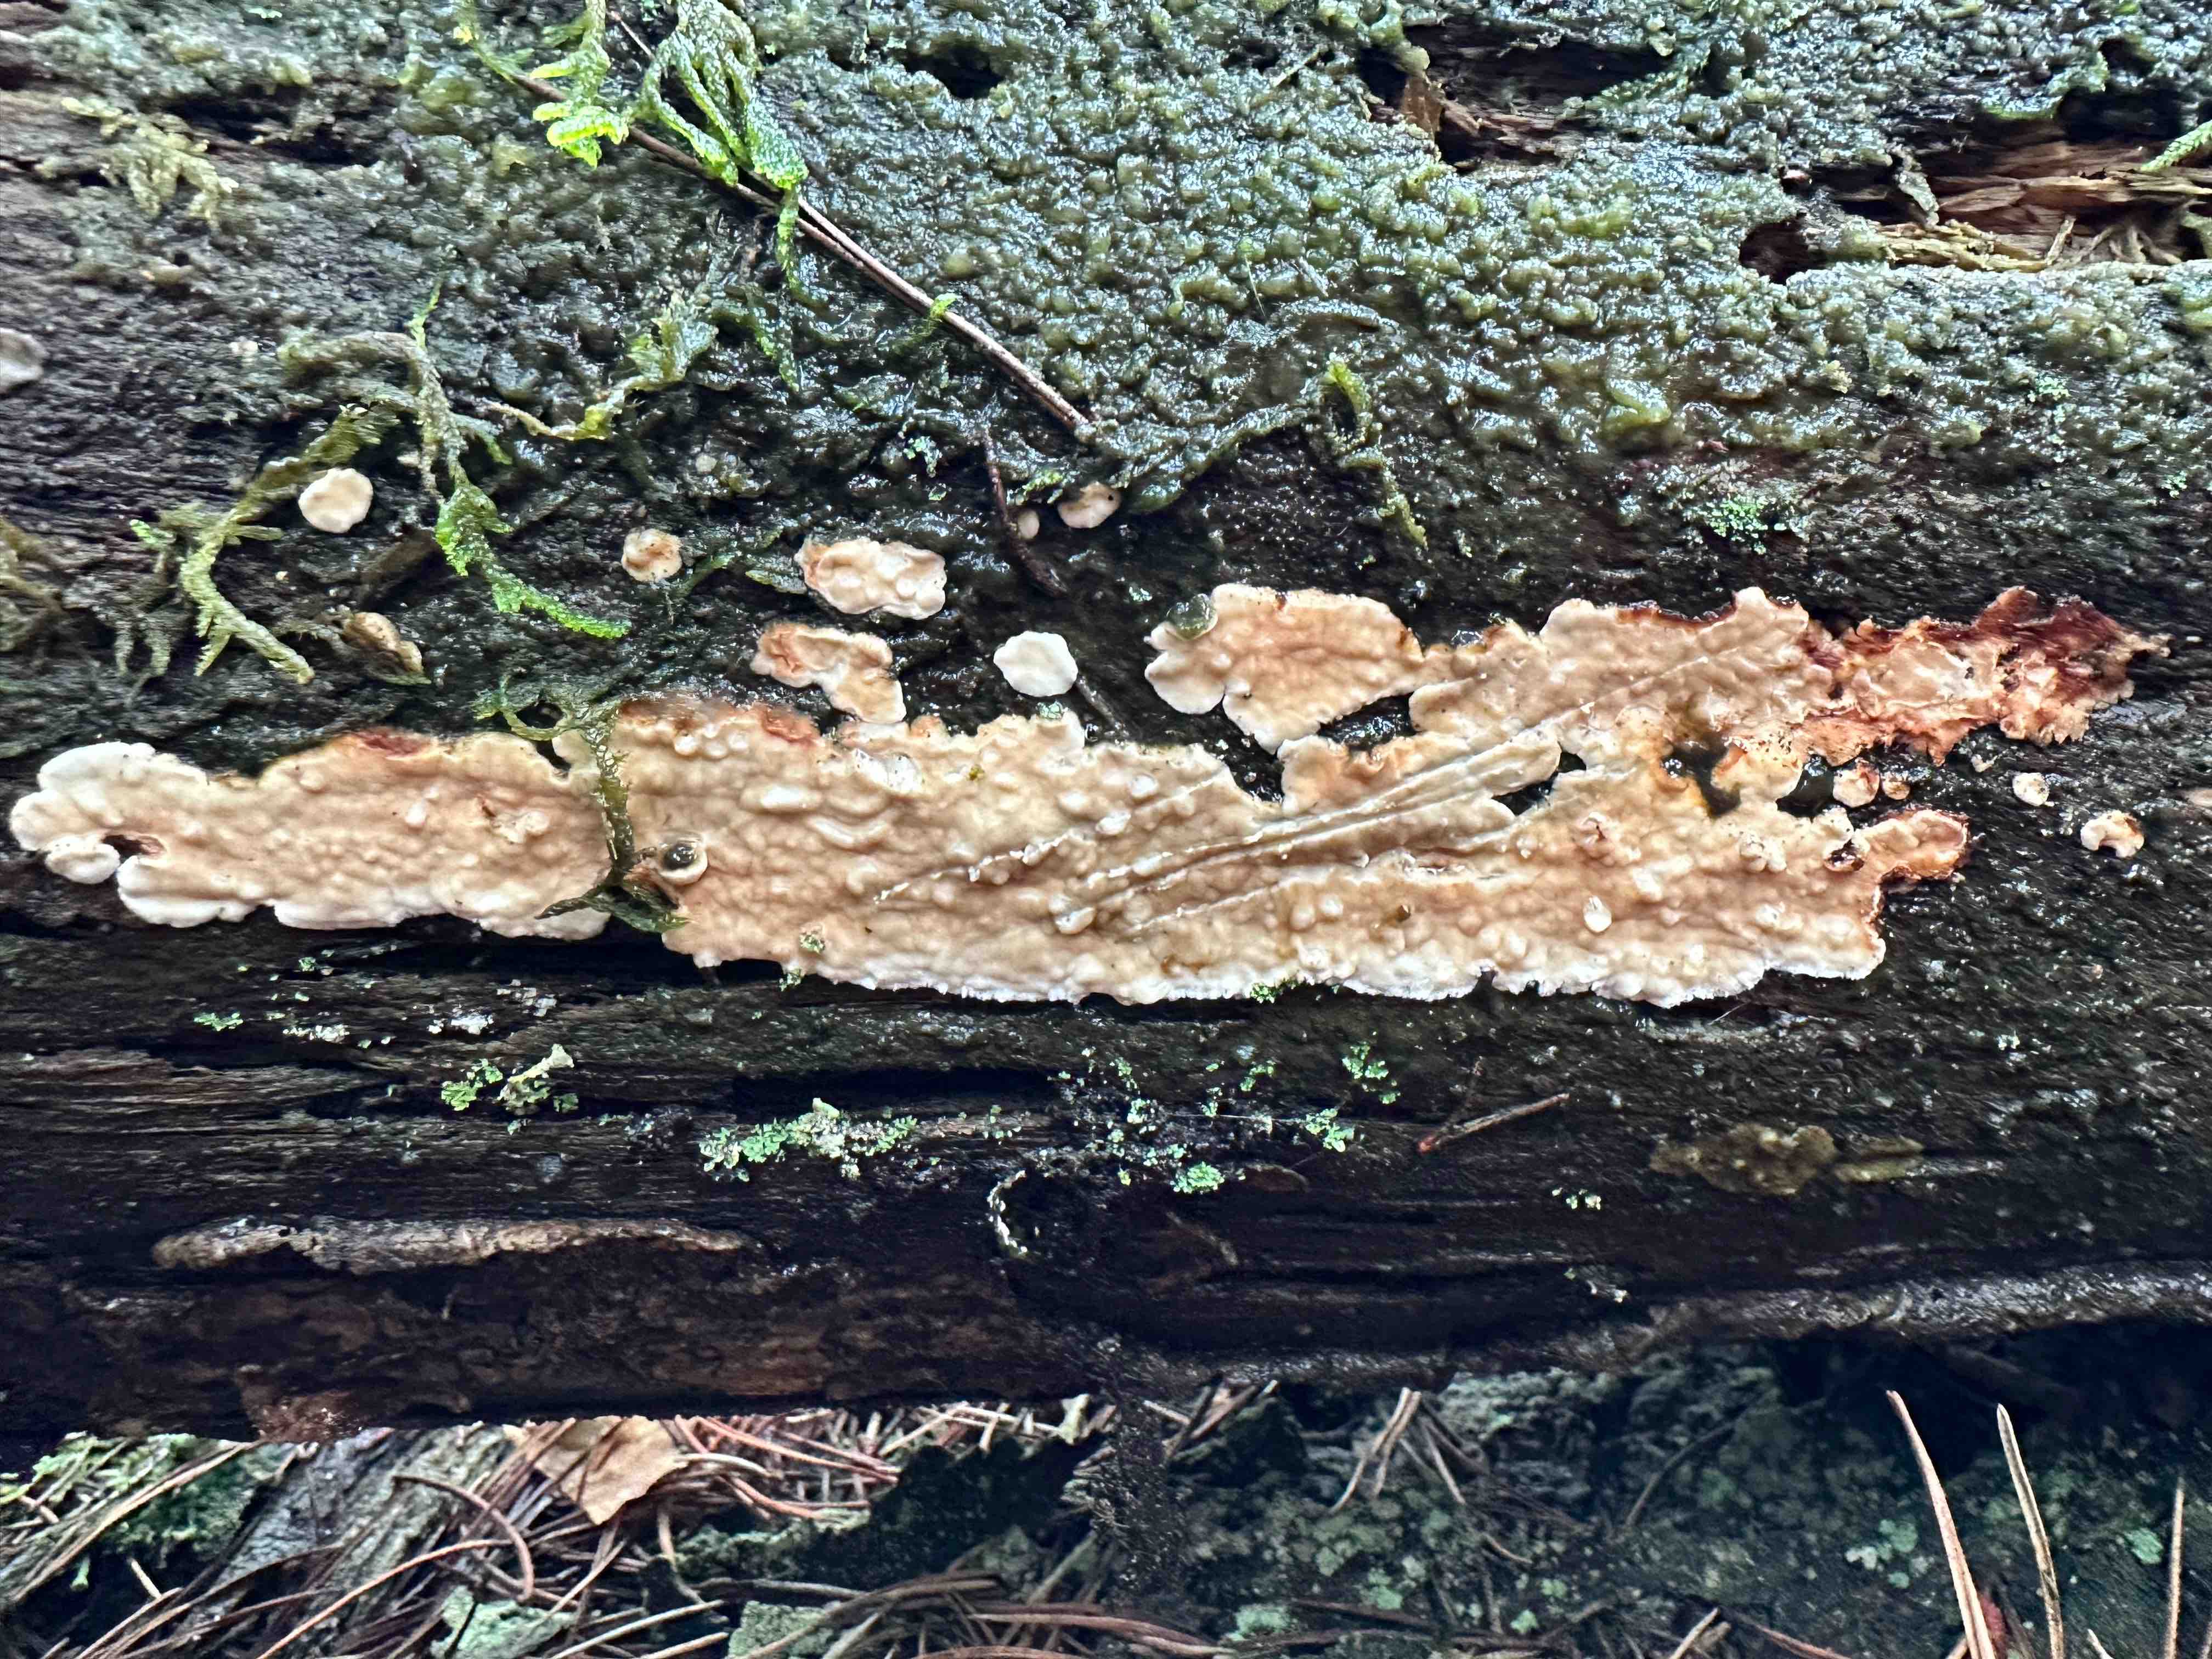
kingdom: Fungi
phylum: Basidiomycota
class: Agaricomycetes
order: Polyporales
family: Dacryobolaceae
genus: Dacryobolus
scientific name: Dacryobolus karstenii
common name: glat vulkanskorpe
